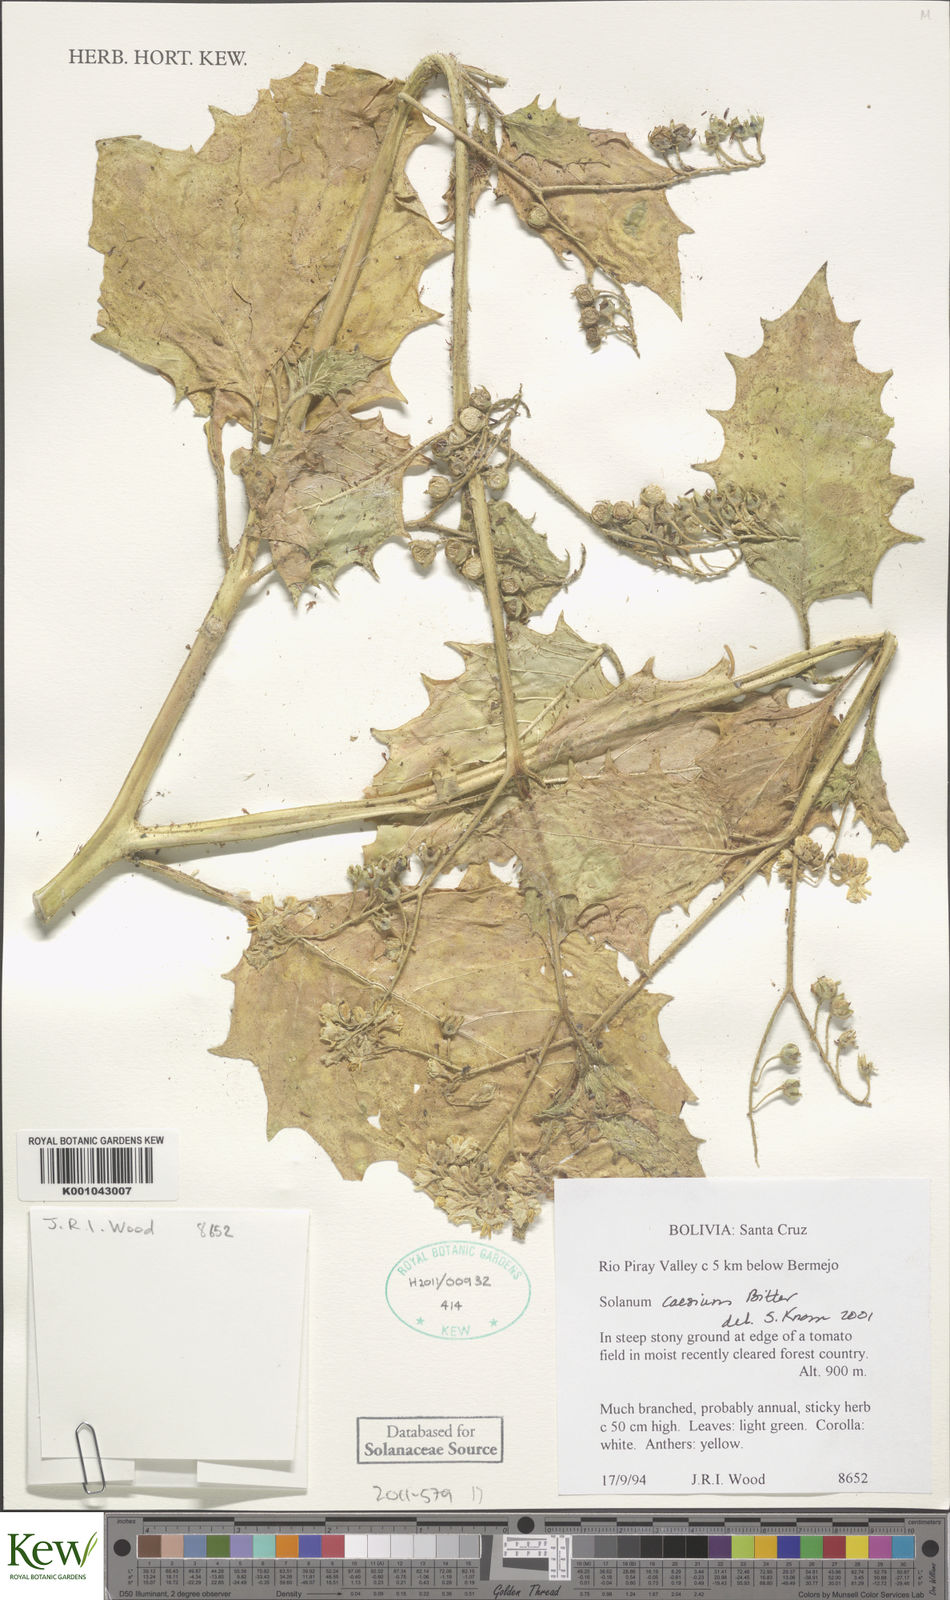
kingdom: Plantae
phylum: Tracheophyta
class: Magnoliopsida
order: Solanales
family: Solanaceae
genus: Solanum
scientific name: Solanum caesium
